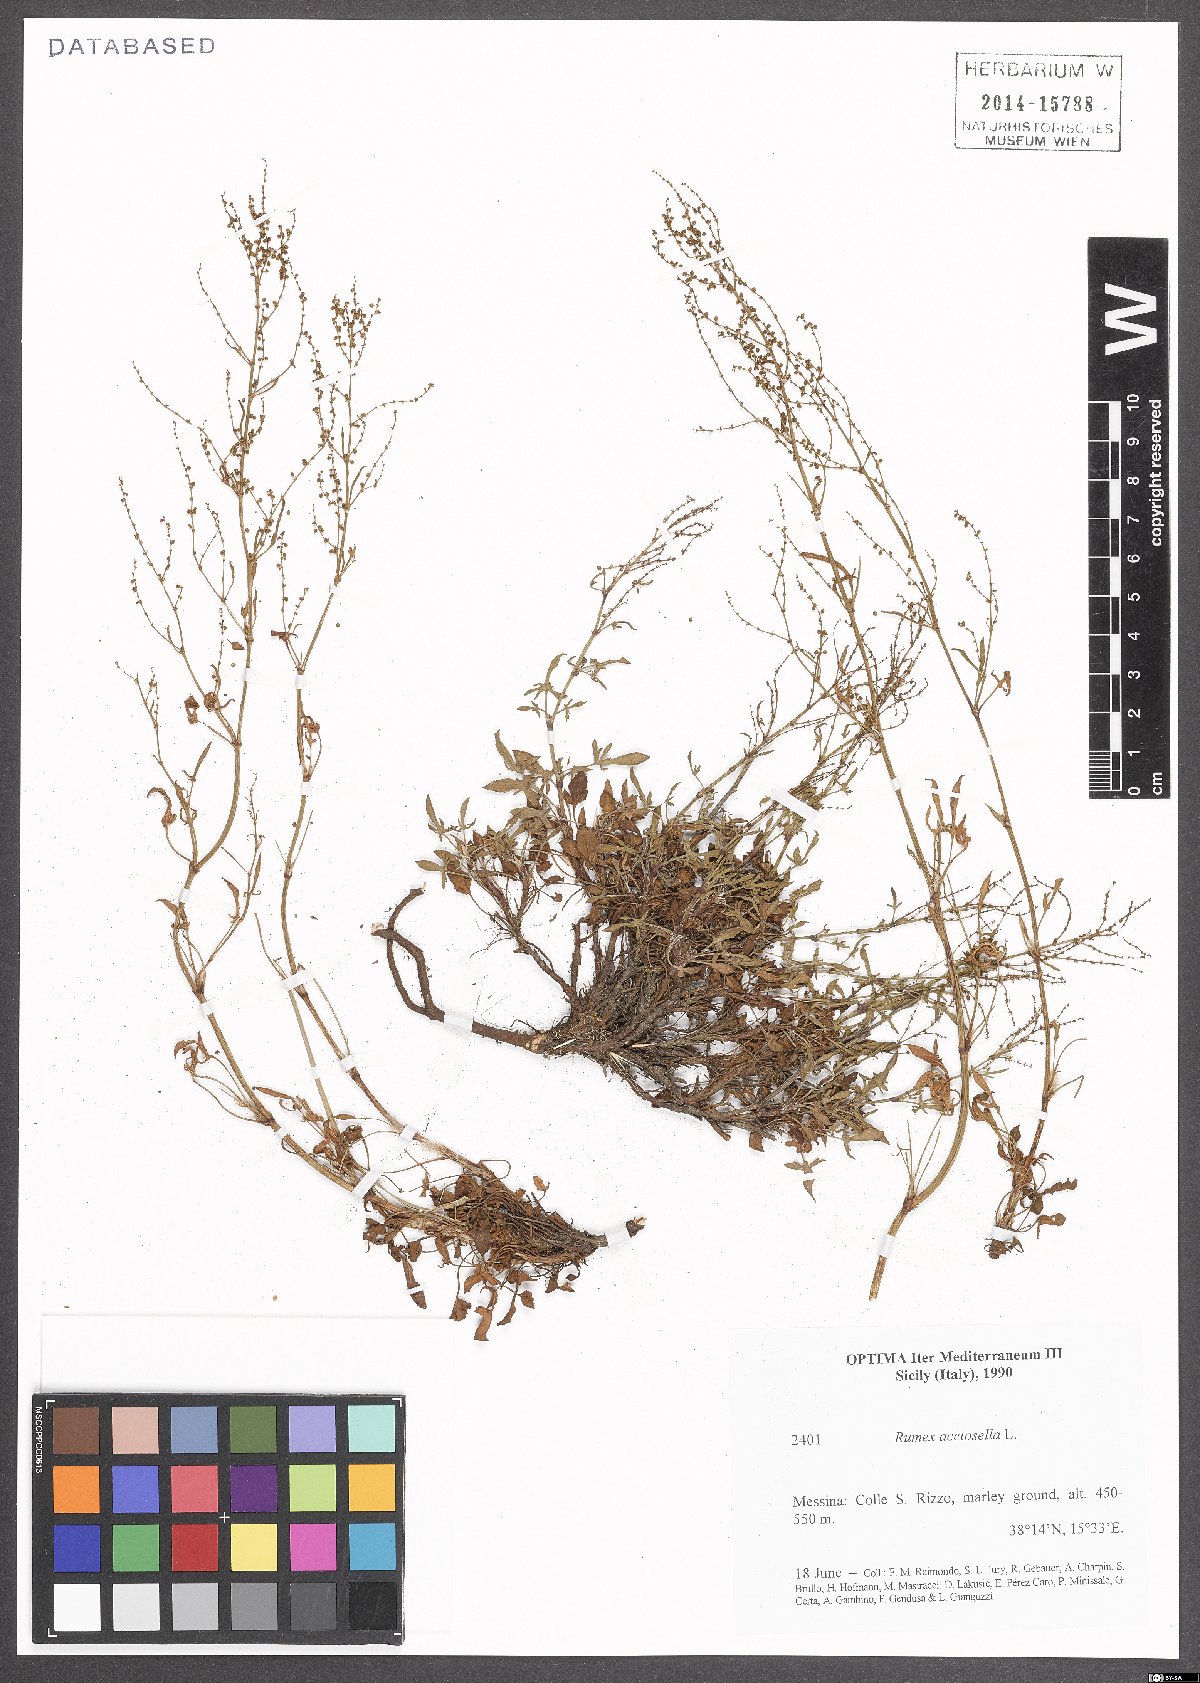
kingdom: Plantae
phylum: Tracheophyta
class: Magnoliopsida
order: Caryophyllales
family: Polygonaceae
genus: Rumex
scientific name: Rumex acetosella
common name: Common sheep sorrel
